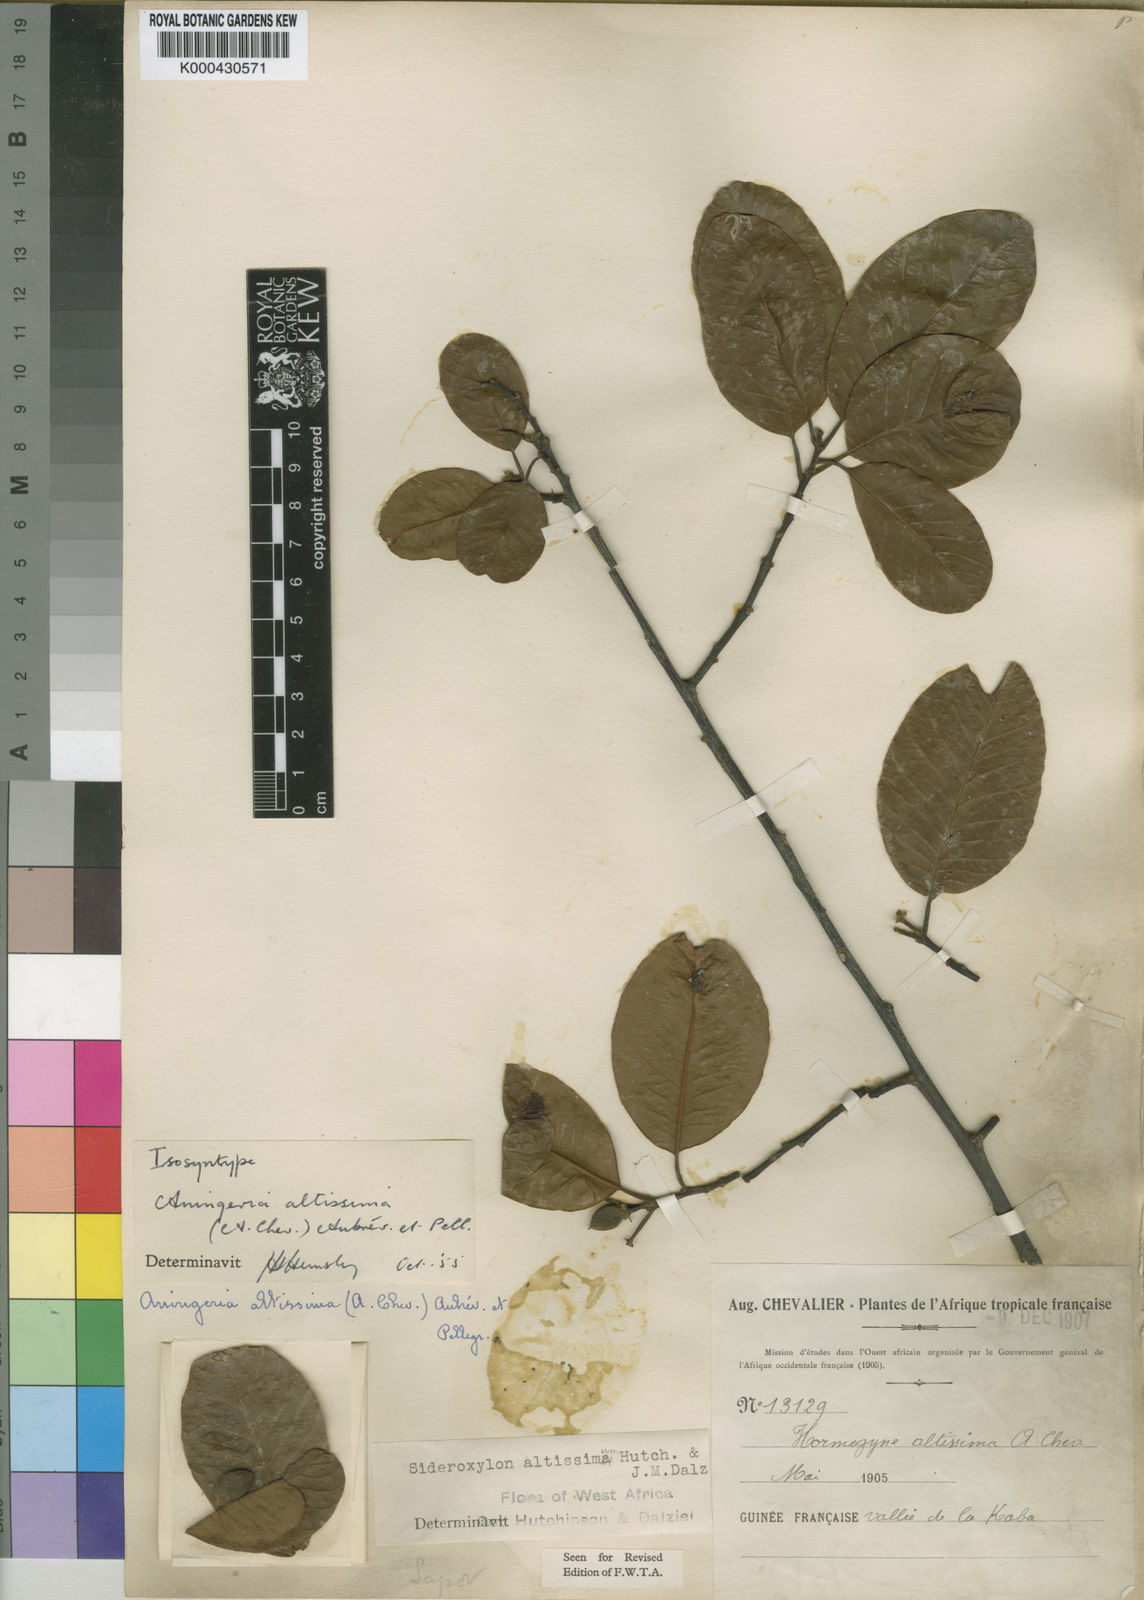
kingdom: Plantae
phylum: Tracheophyta
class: Magnoliopsida
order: Ericales
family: Sapotaceae
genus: Aningeria
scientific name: Aningeria altissima
